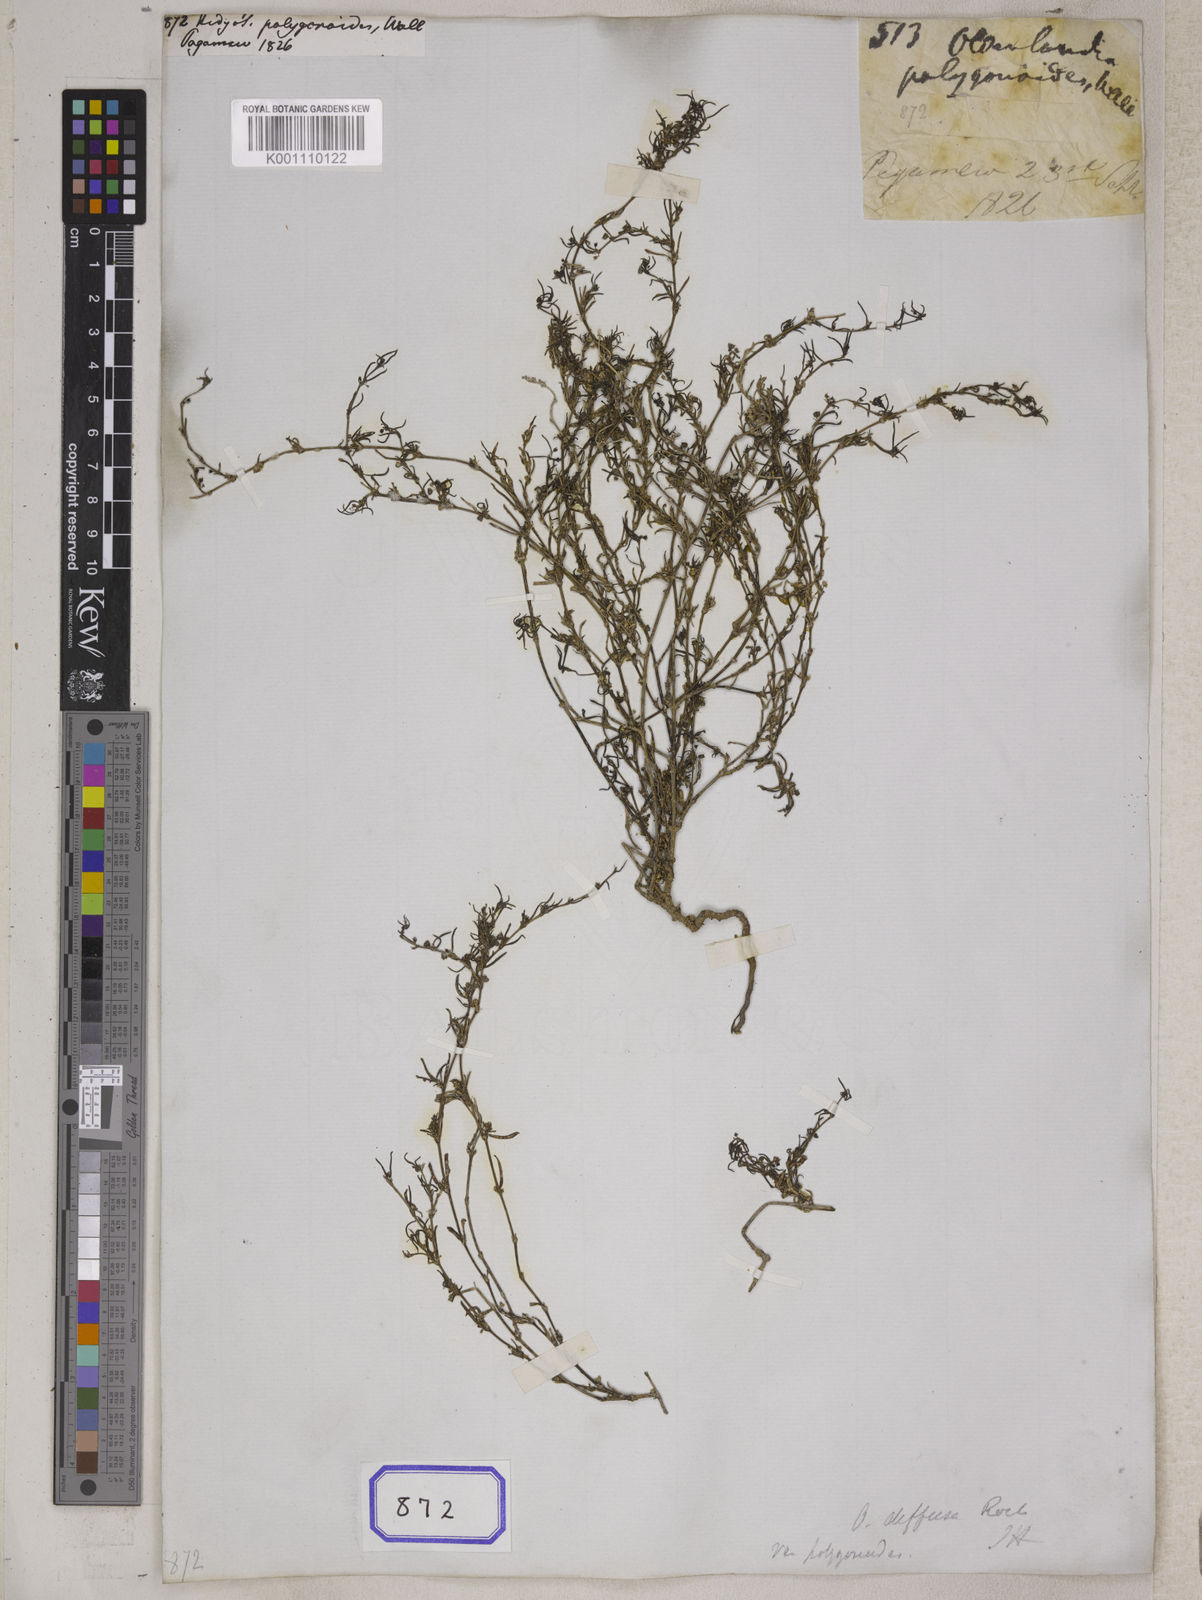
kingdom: Plantae
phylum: Tracheophyta
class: Magnoliopsida
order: Gentianales
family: Rubiaceae
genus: Scleromitrion
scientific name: Scleromitrion diffusum
